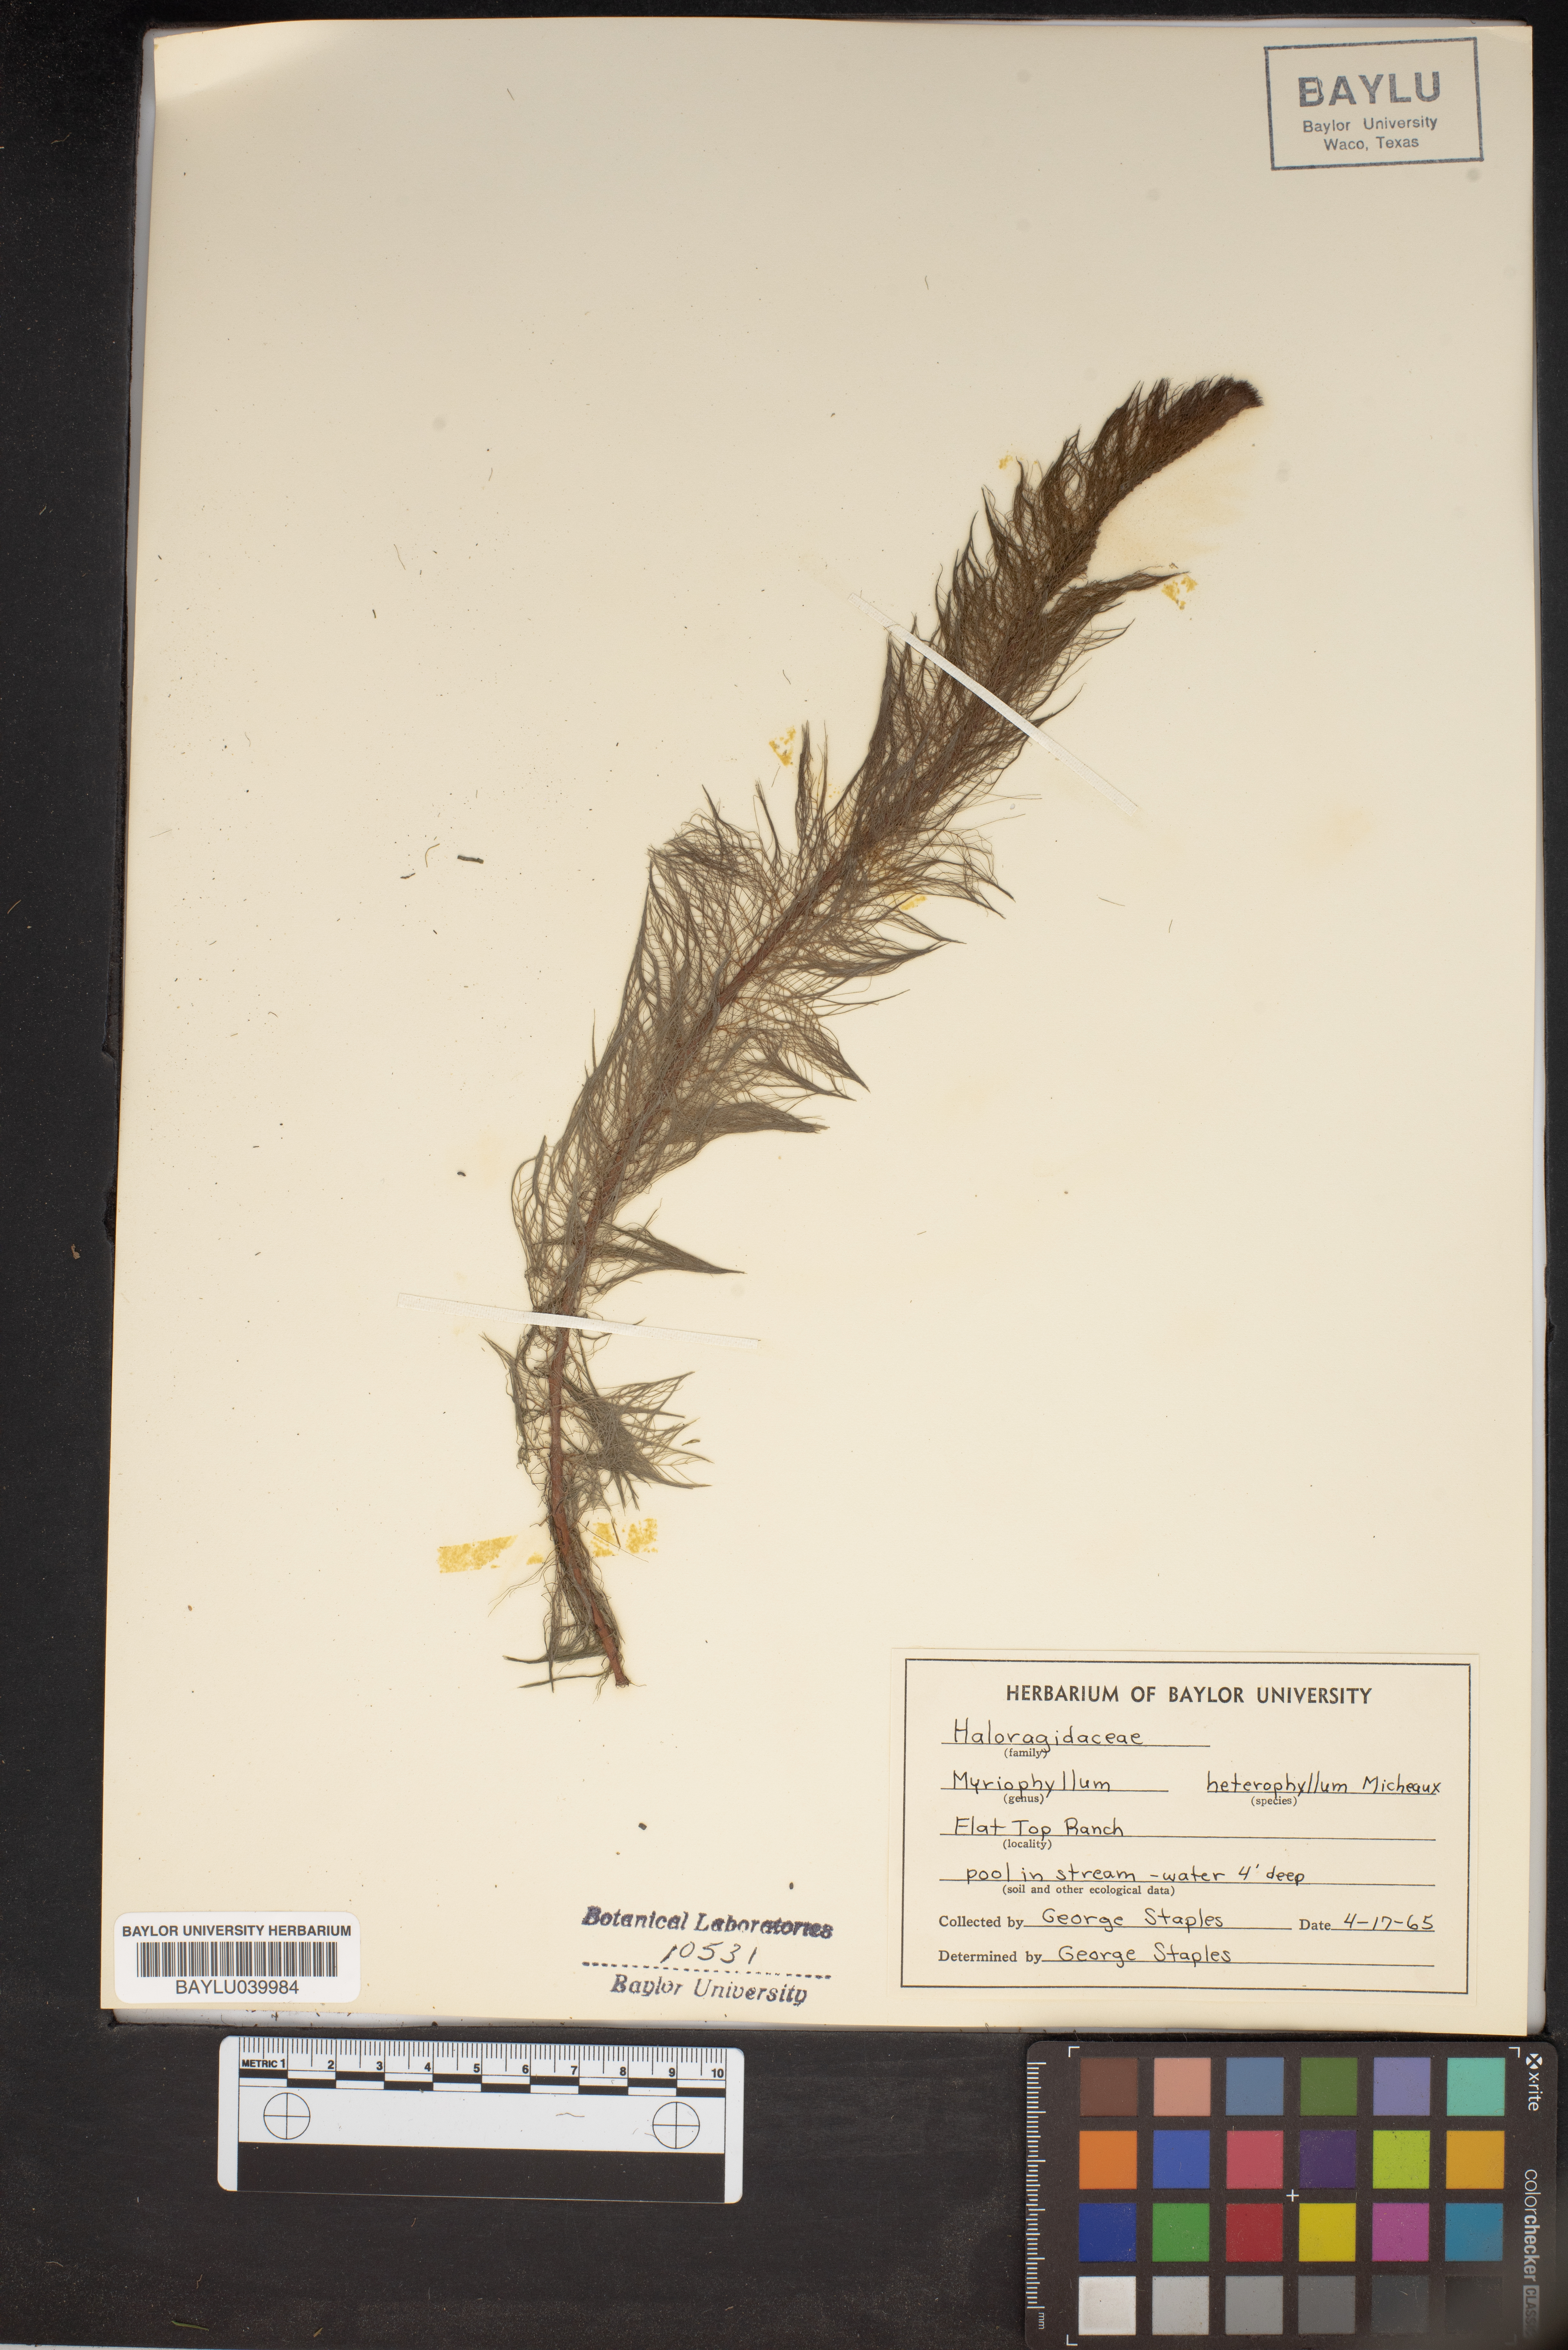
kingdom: Plantae
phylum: Tracheophyta
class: Magnoliopsida
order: Saxifragales
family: Haloragaceae
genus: Myriophyllum
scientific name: Myriophyllum heterophyllum
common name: Variable watermilfoil
